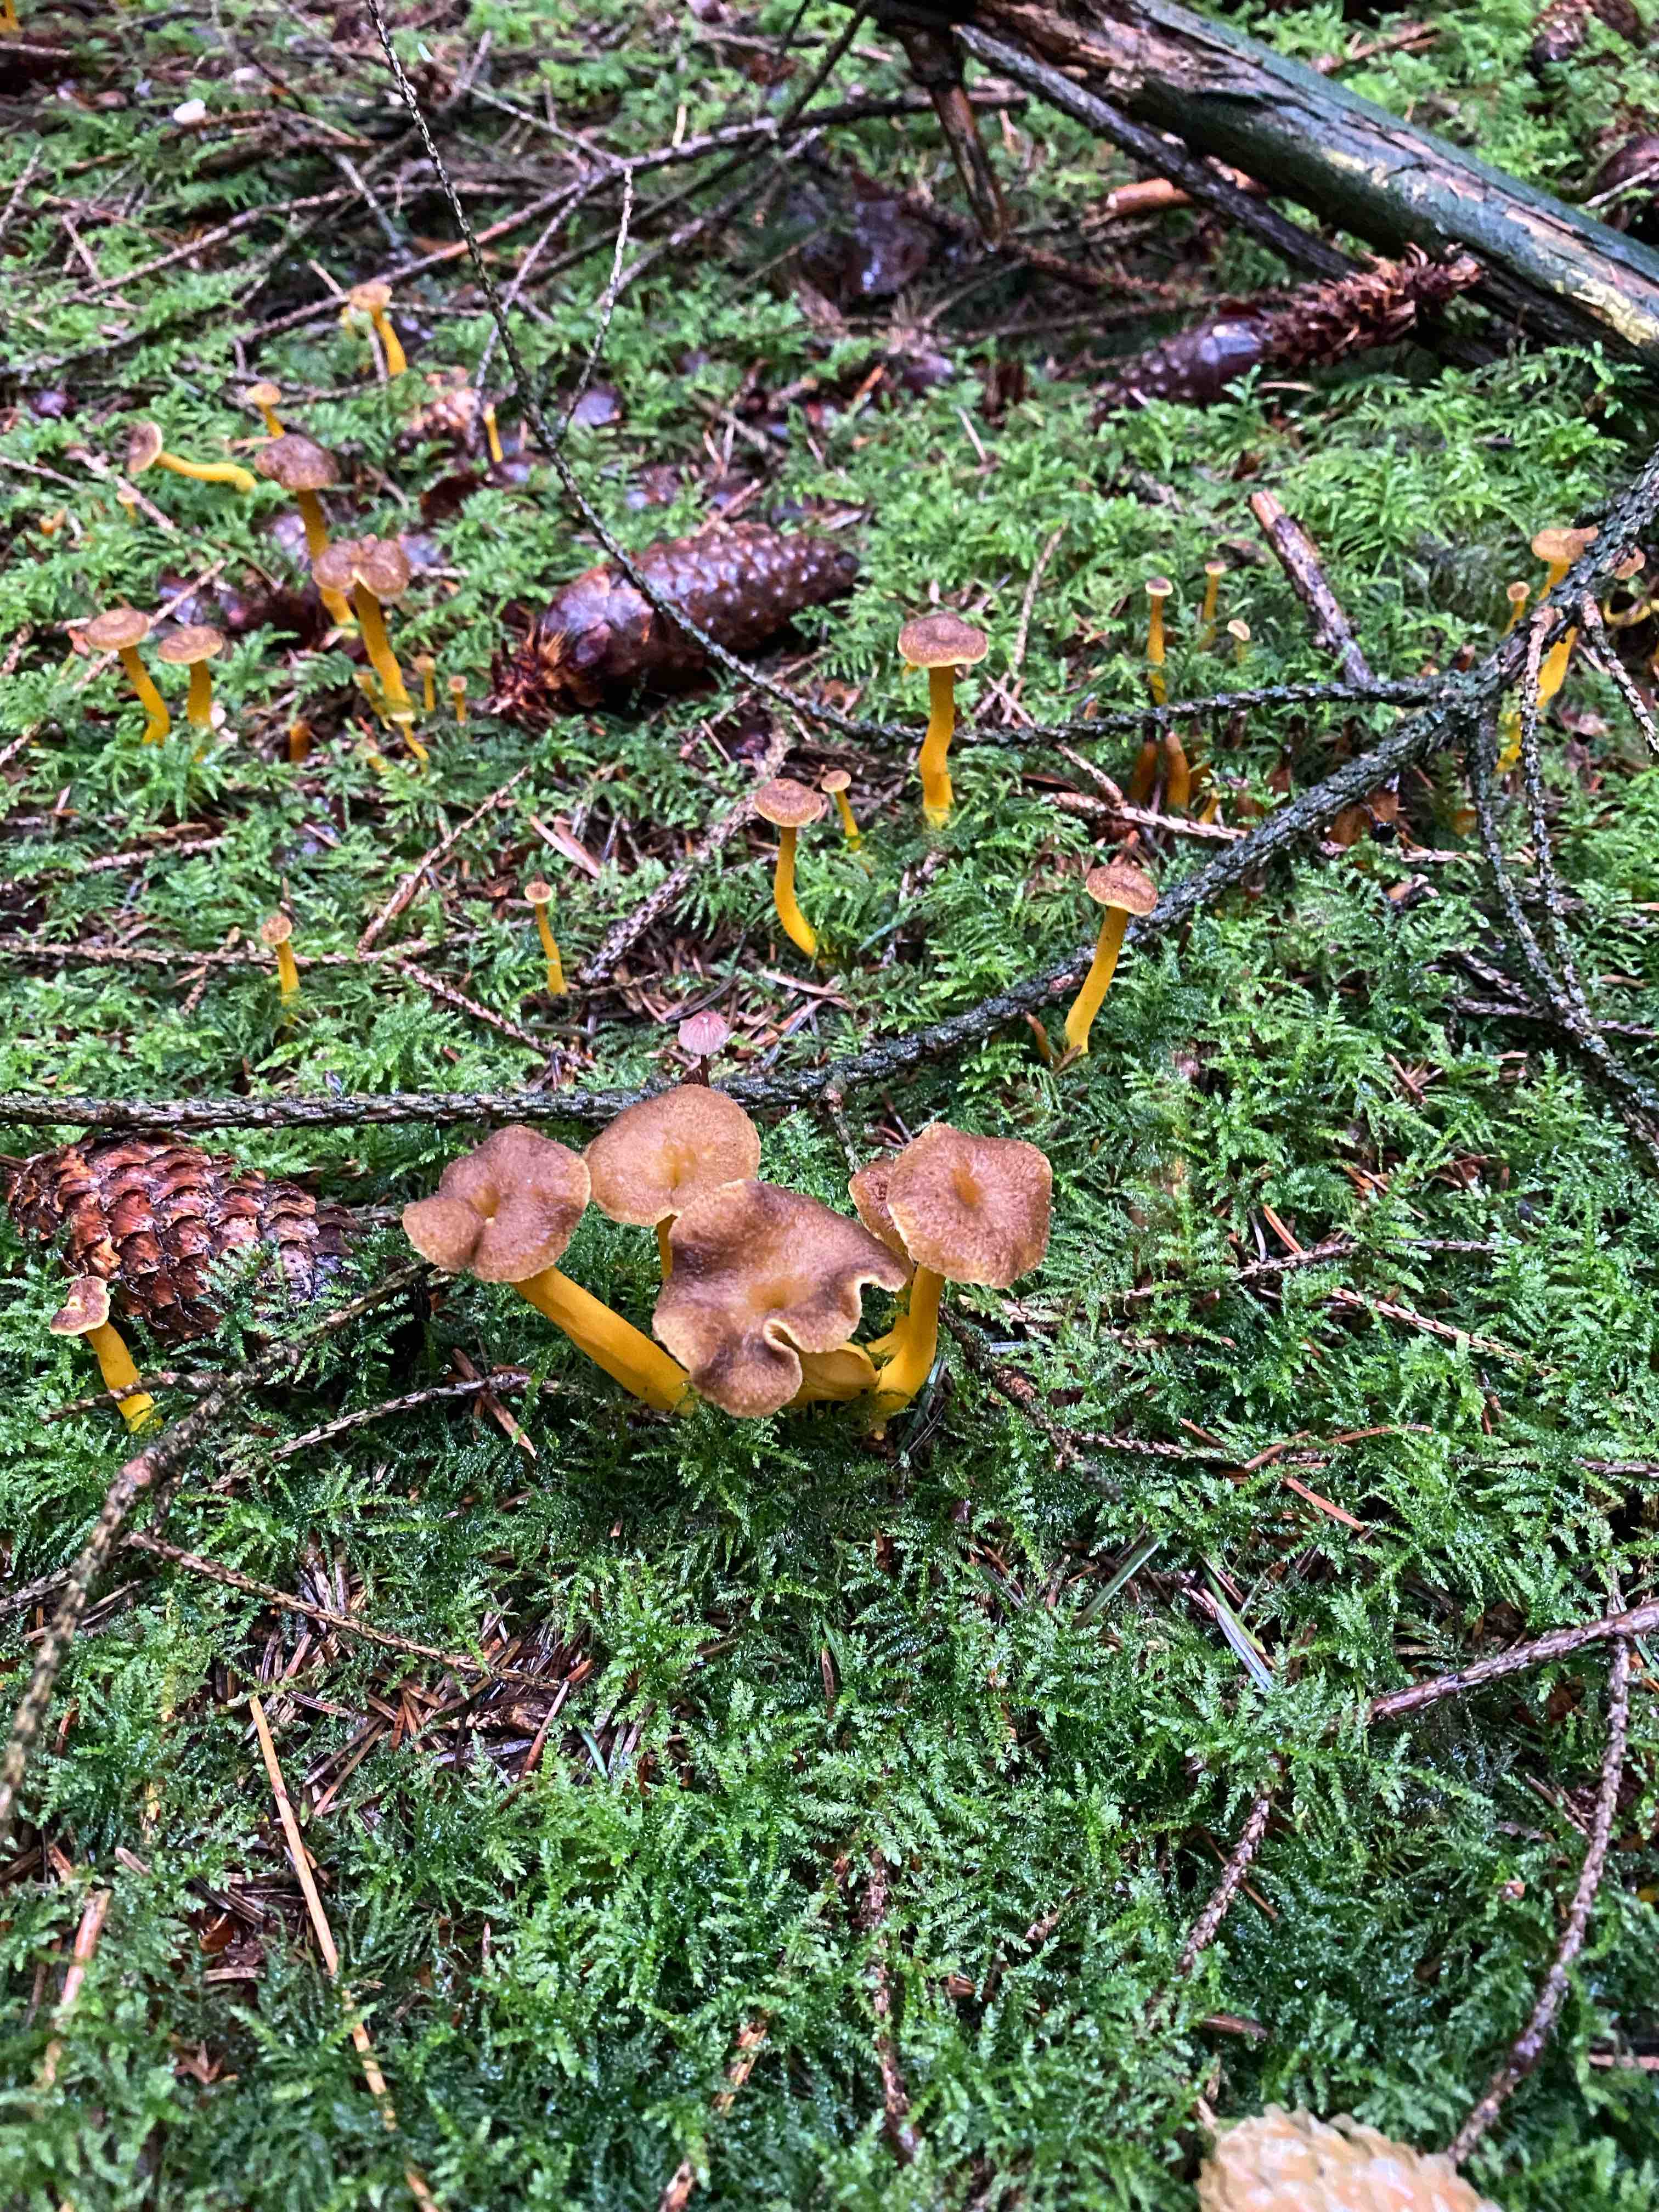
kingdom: Fungi
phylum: Basidiomycota
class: Agaricomycetes
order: Cantharellales
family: Hydnaceae
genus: Craterellus
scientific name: Craterellus tubaeformis
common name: tragt-kantarel
